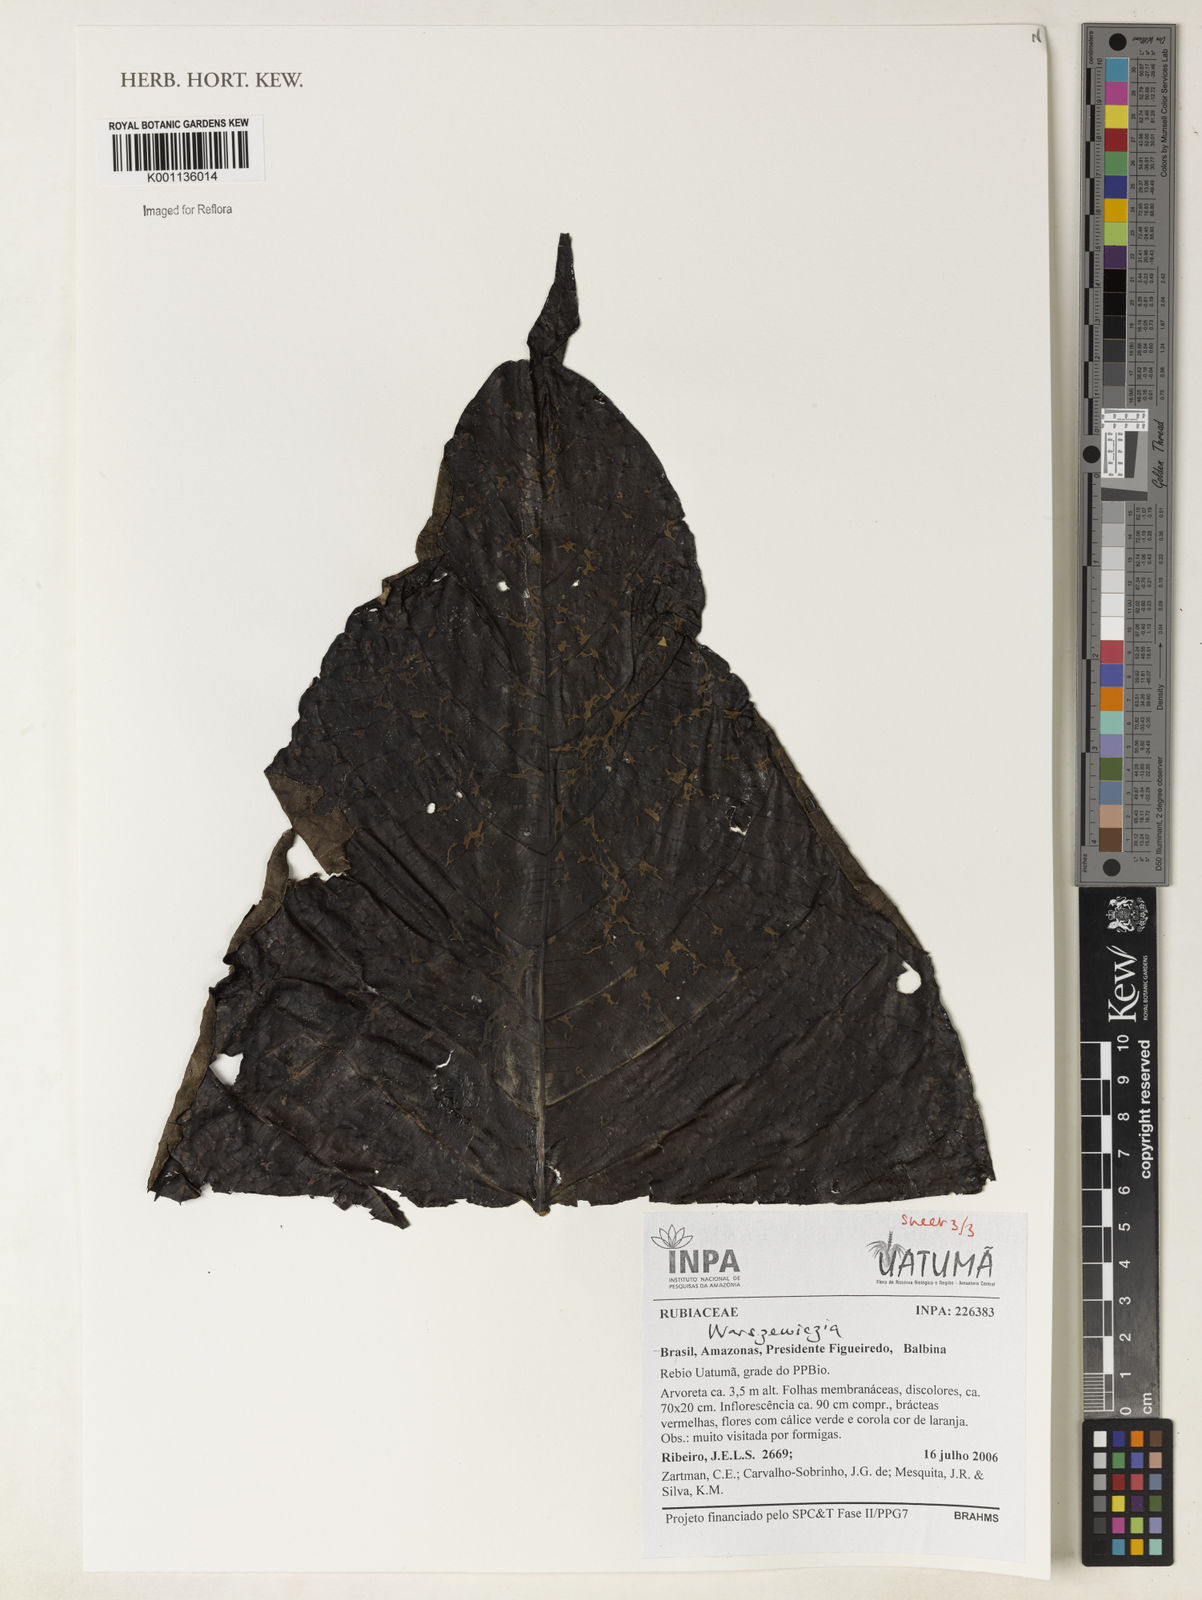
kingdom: Plantae
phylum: Tracheophyta
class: Magnoliopsida
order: Gentianales
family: Rubiaceae
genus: Warszewiczia
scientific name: Warszewiczia
